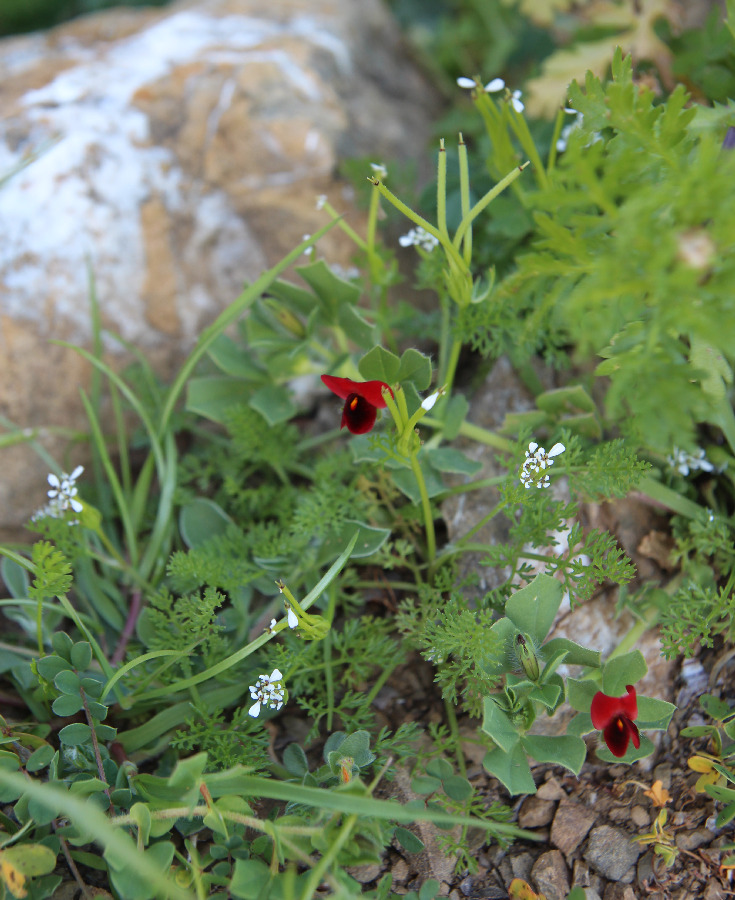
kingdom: Plantae
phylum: Tracheophyta
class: Magnoliopsida
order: Fabales
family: Fabaceae
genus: Lotus
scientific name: Lotus tetragonolobus
